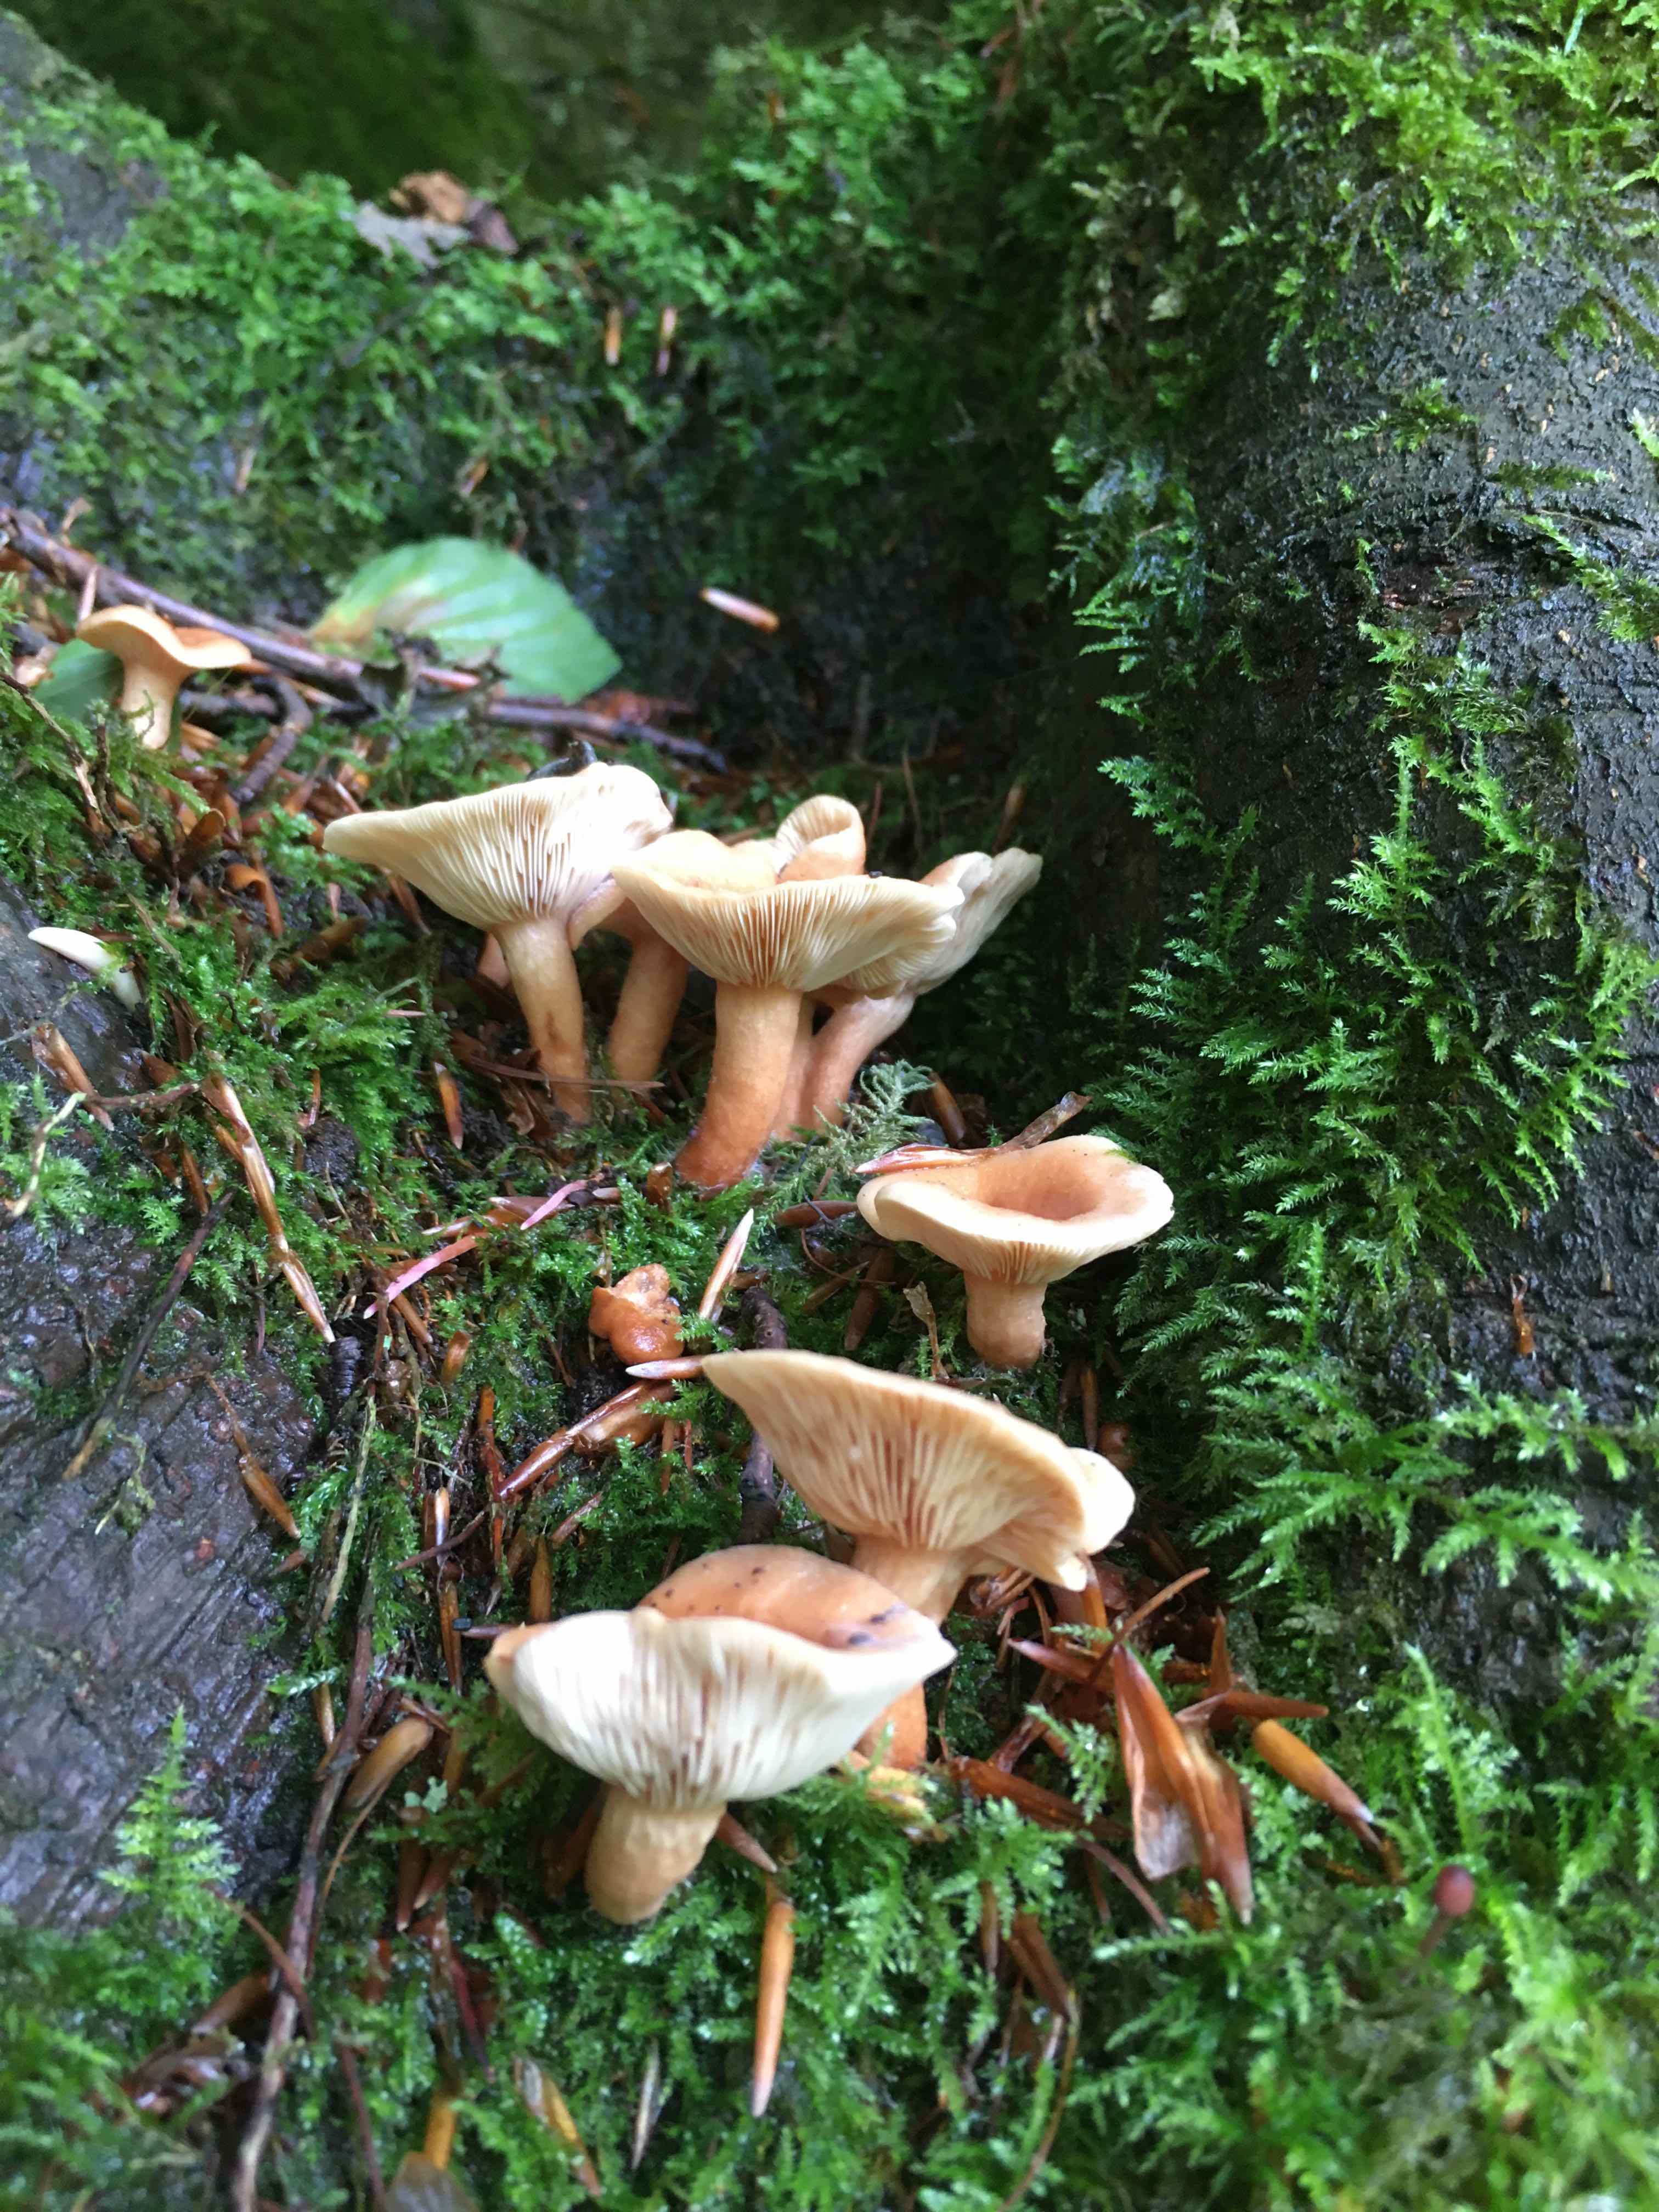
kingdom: Fungi
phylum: Basidiomycota
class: Agaricomycetes
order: Russulales
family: Russulaceae
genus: Lactarius
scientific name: Lactarius tabidus
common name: rynket mælkehat
